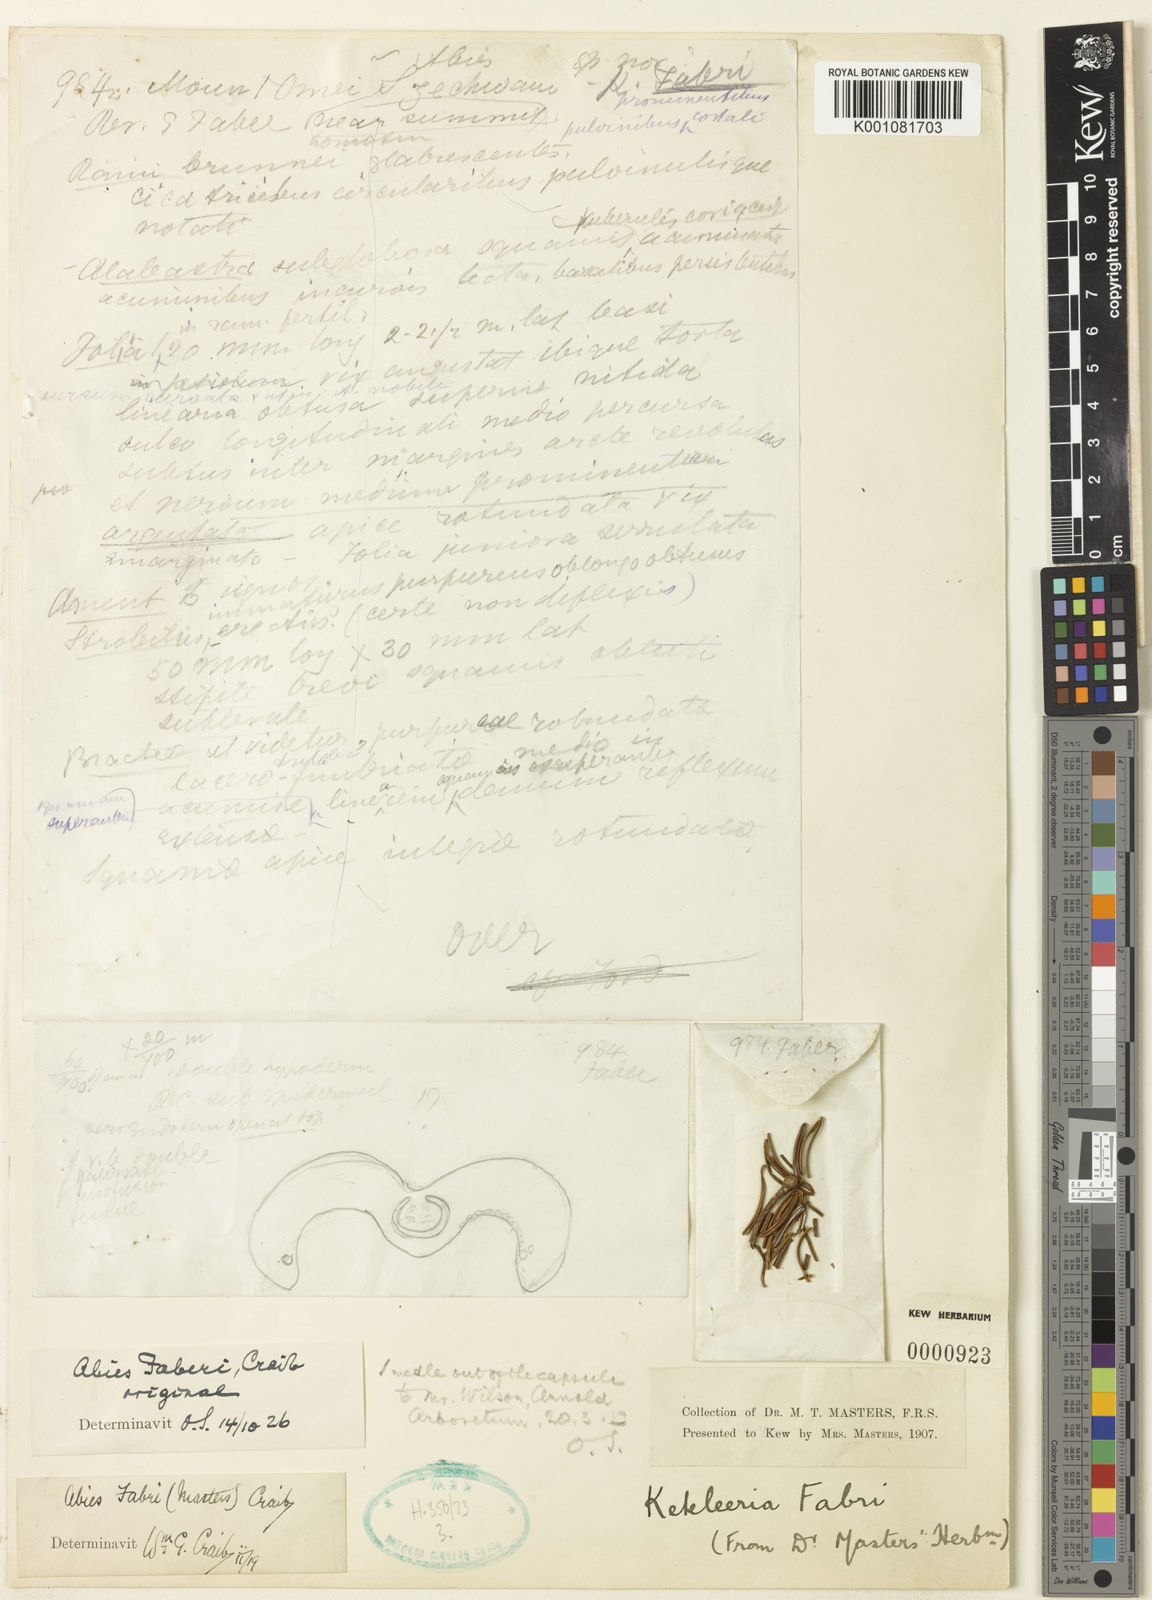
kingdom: Plantae
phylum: Tracheophyta
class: Pinopsida
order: Pinales
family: Pinaceae
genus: Abies
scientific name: Abies fabri
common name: Faber’s fir
